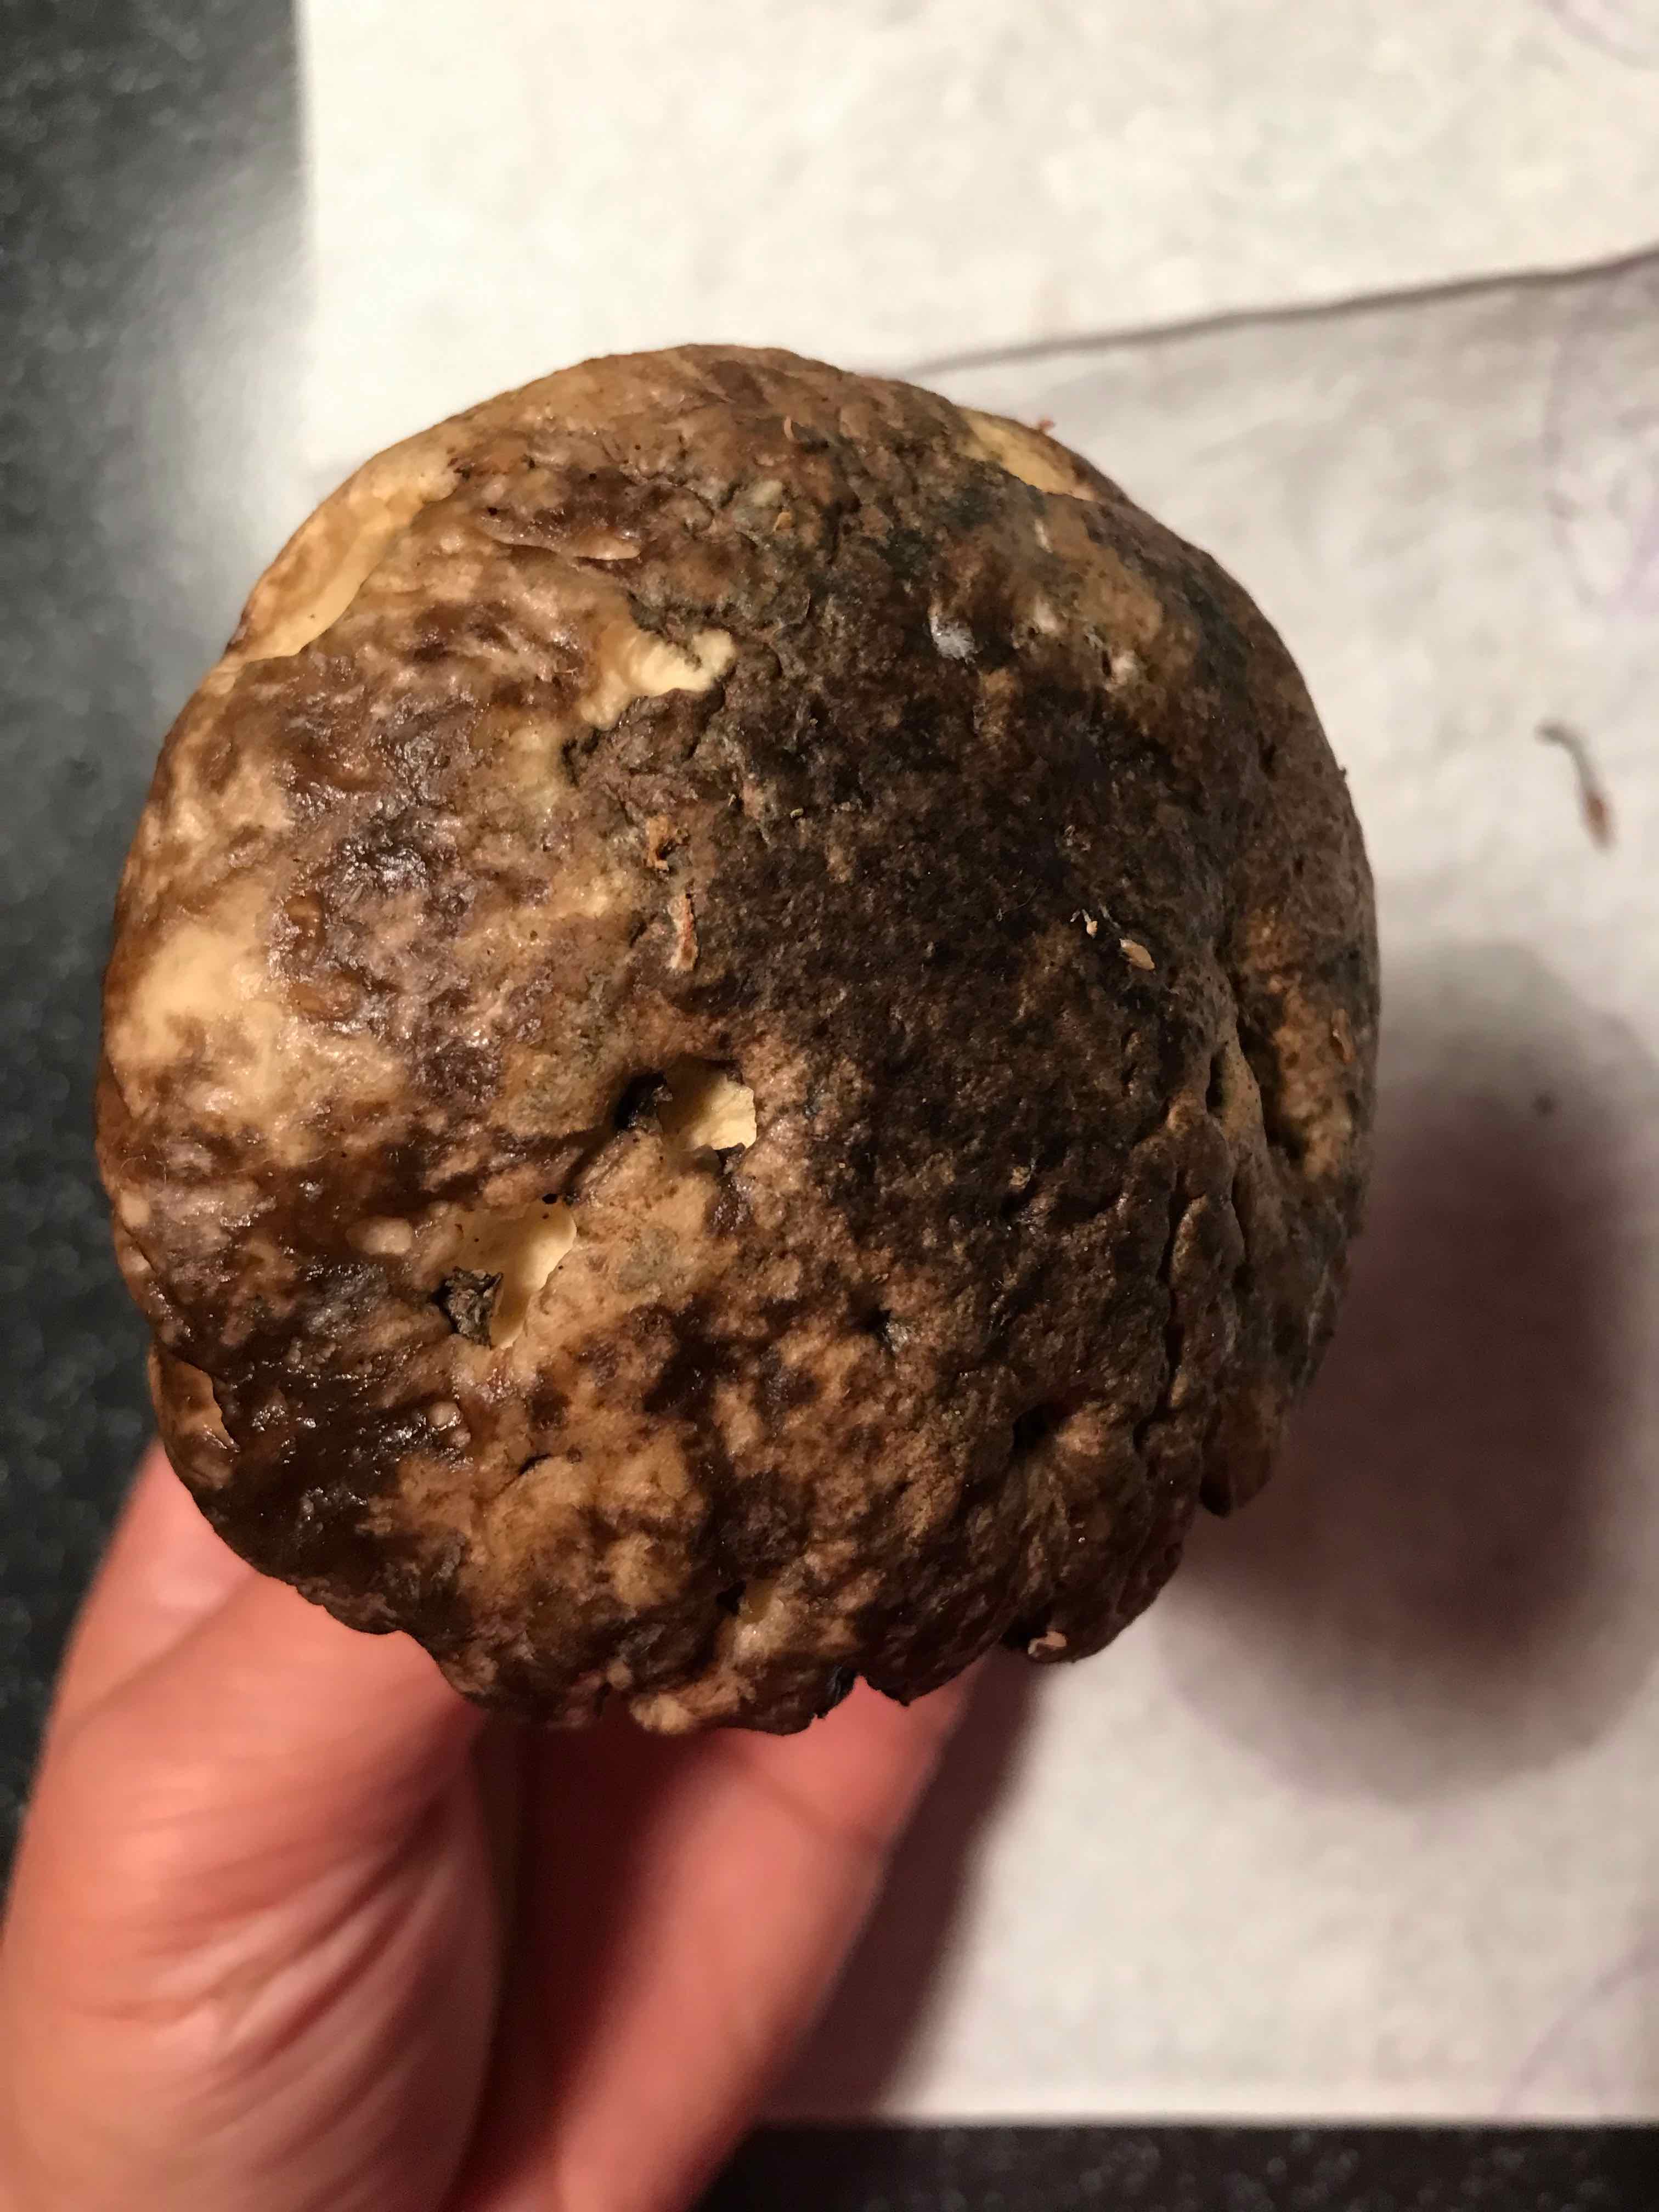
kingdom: Fungi
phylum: Basidiomycota
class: Agaricomycetes
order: Boletales
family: Boletaceae
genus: Leccinum
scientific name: Leccinum variicolor
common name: flammet skælrørhat
